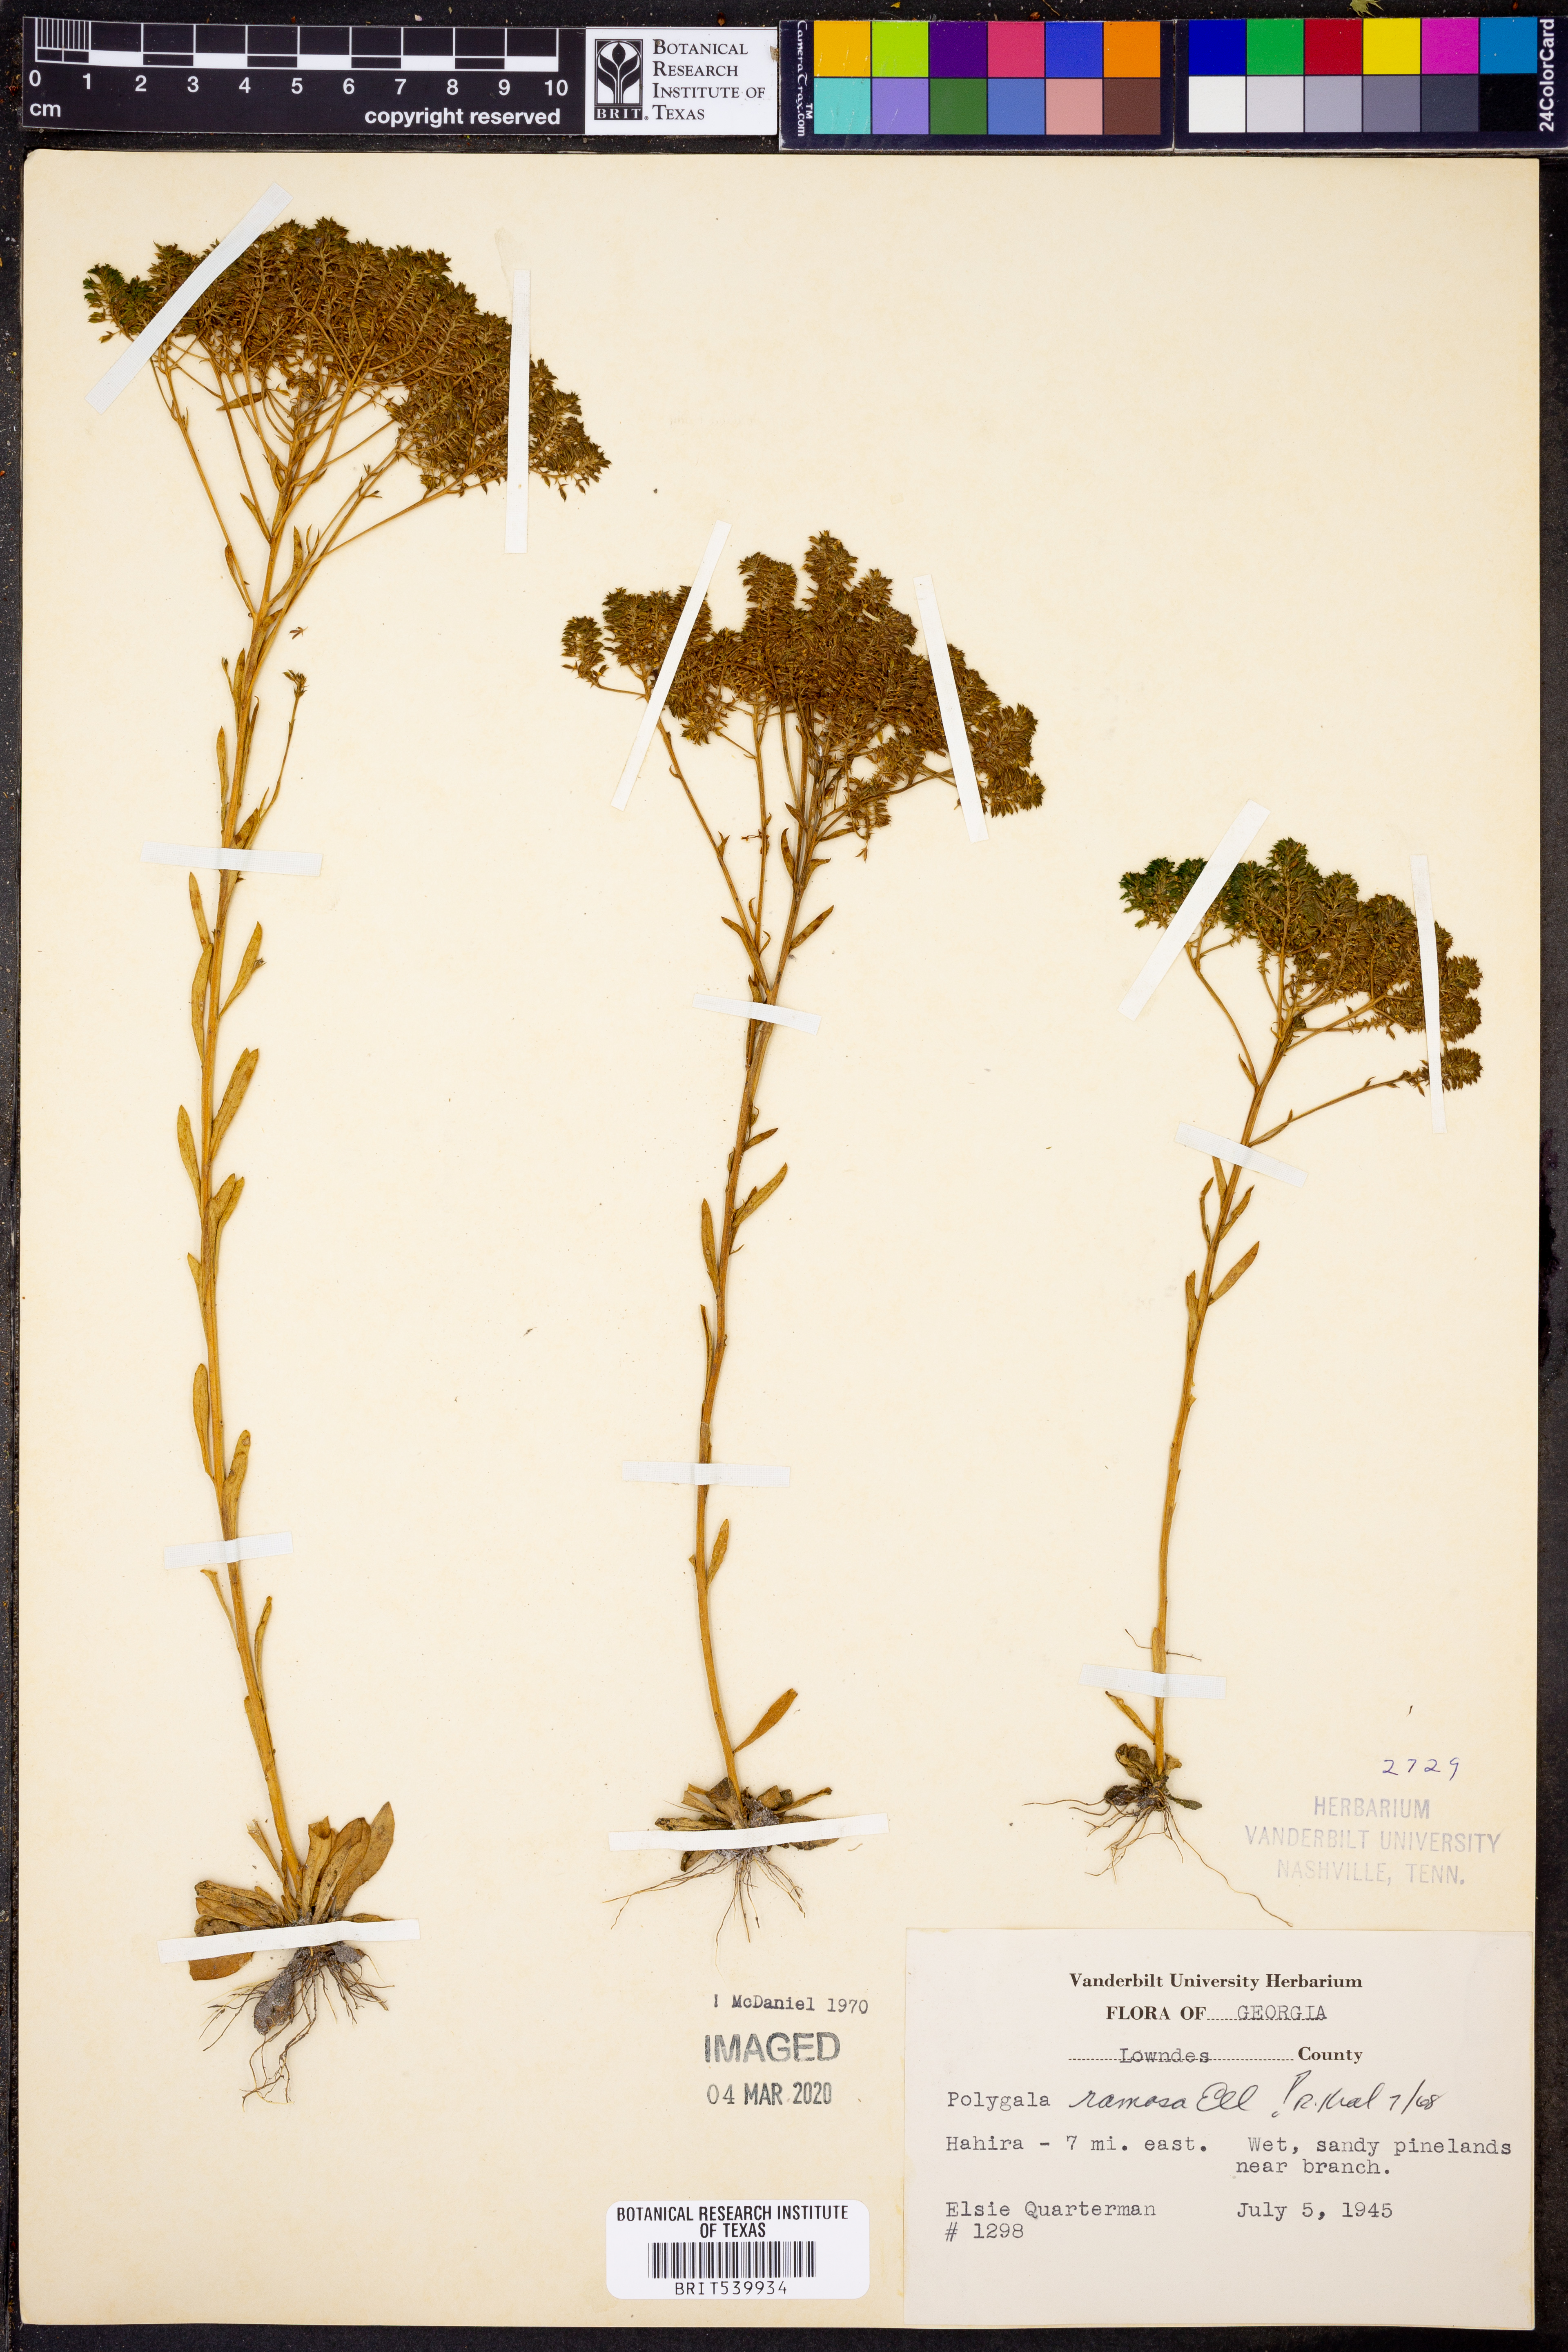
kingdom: Plantae
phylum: Tracheophyta
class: Magnoliopsida
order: Fabales
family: Polygalaceae
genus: Polygala
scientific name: Polygala ramosa
